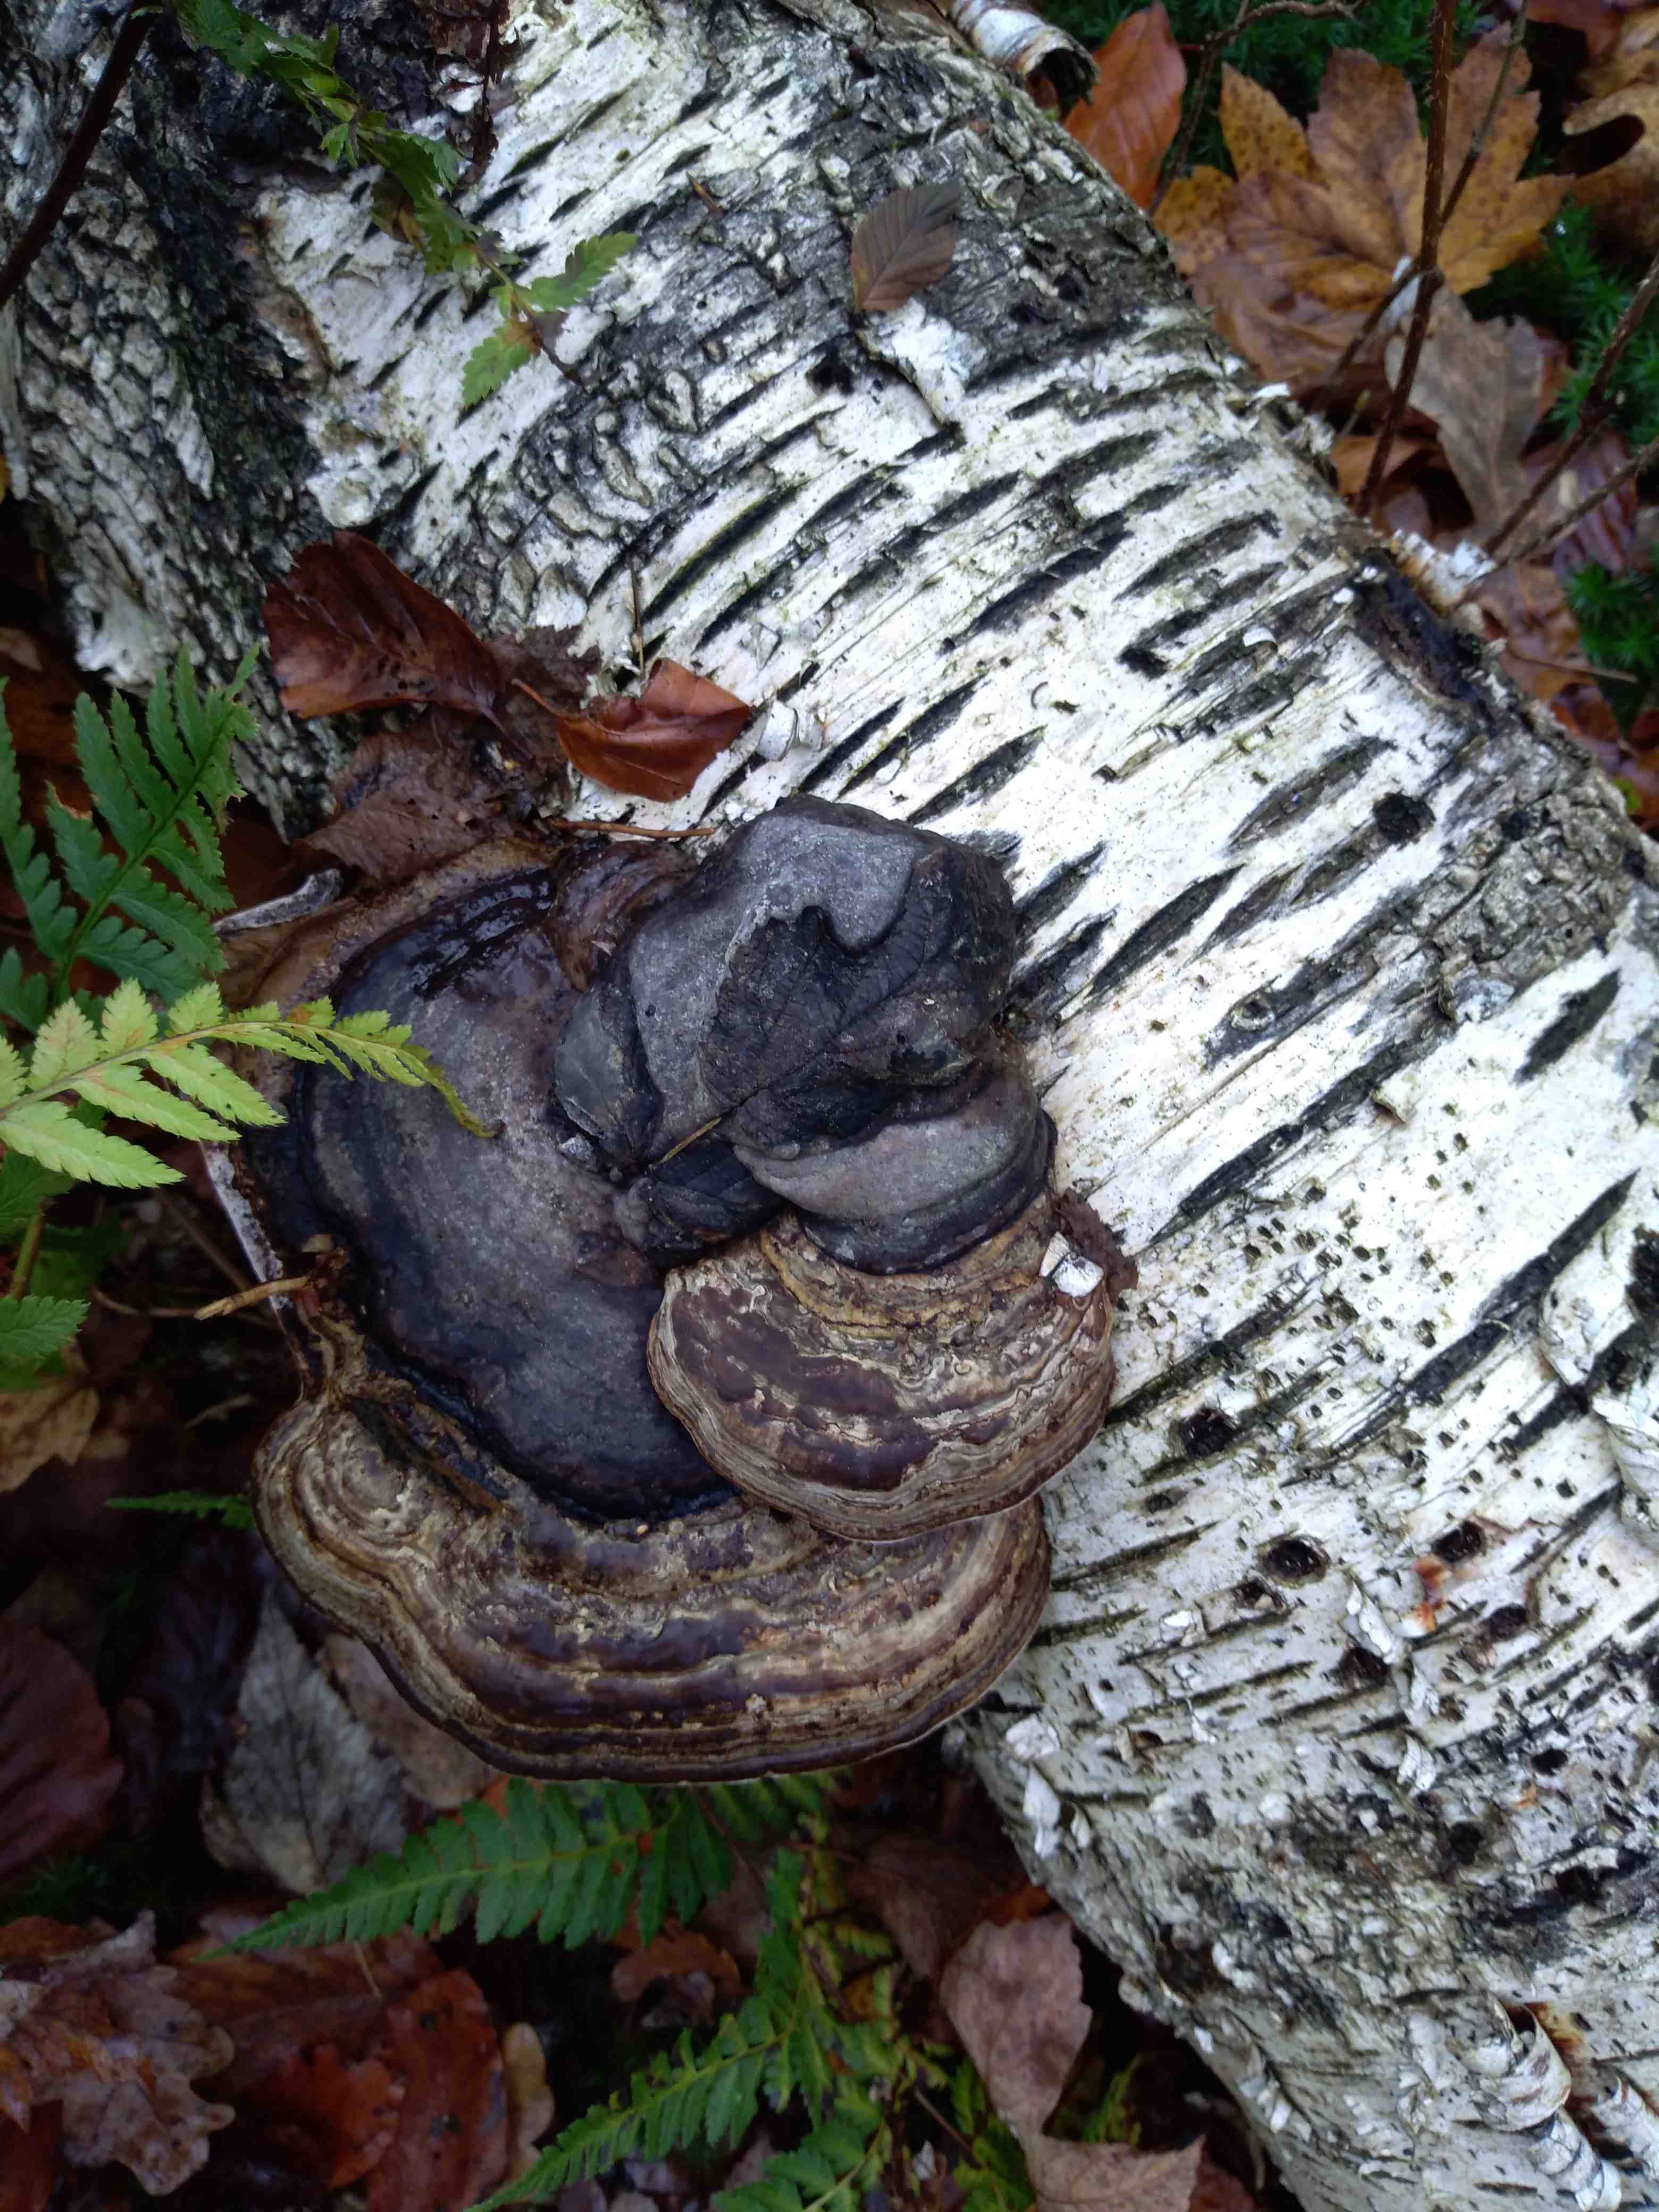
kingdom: Fungi
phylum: Basidiomycota
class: Agaricomycetes
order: Polyporales
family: Polyporaceae
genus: Fomes
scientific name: Fomes fomentarius
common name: tøndersvamp
